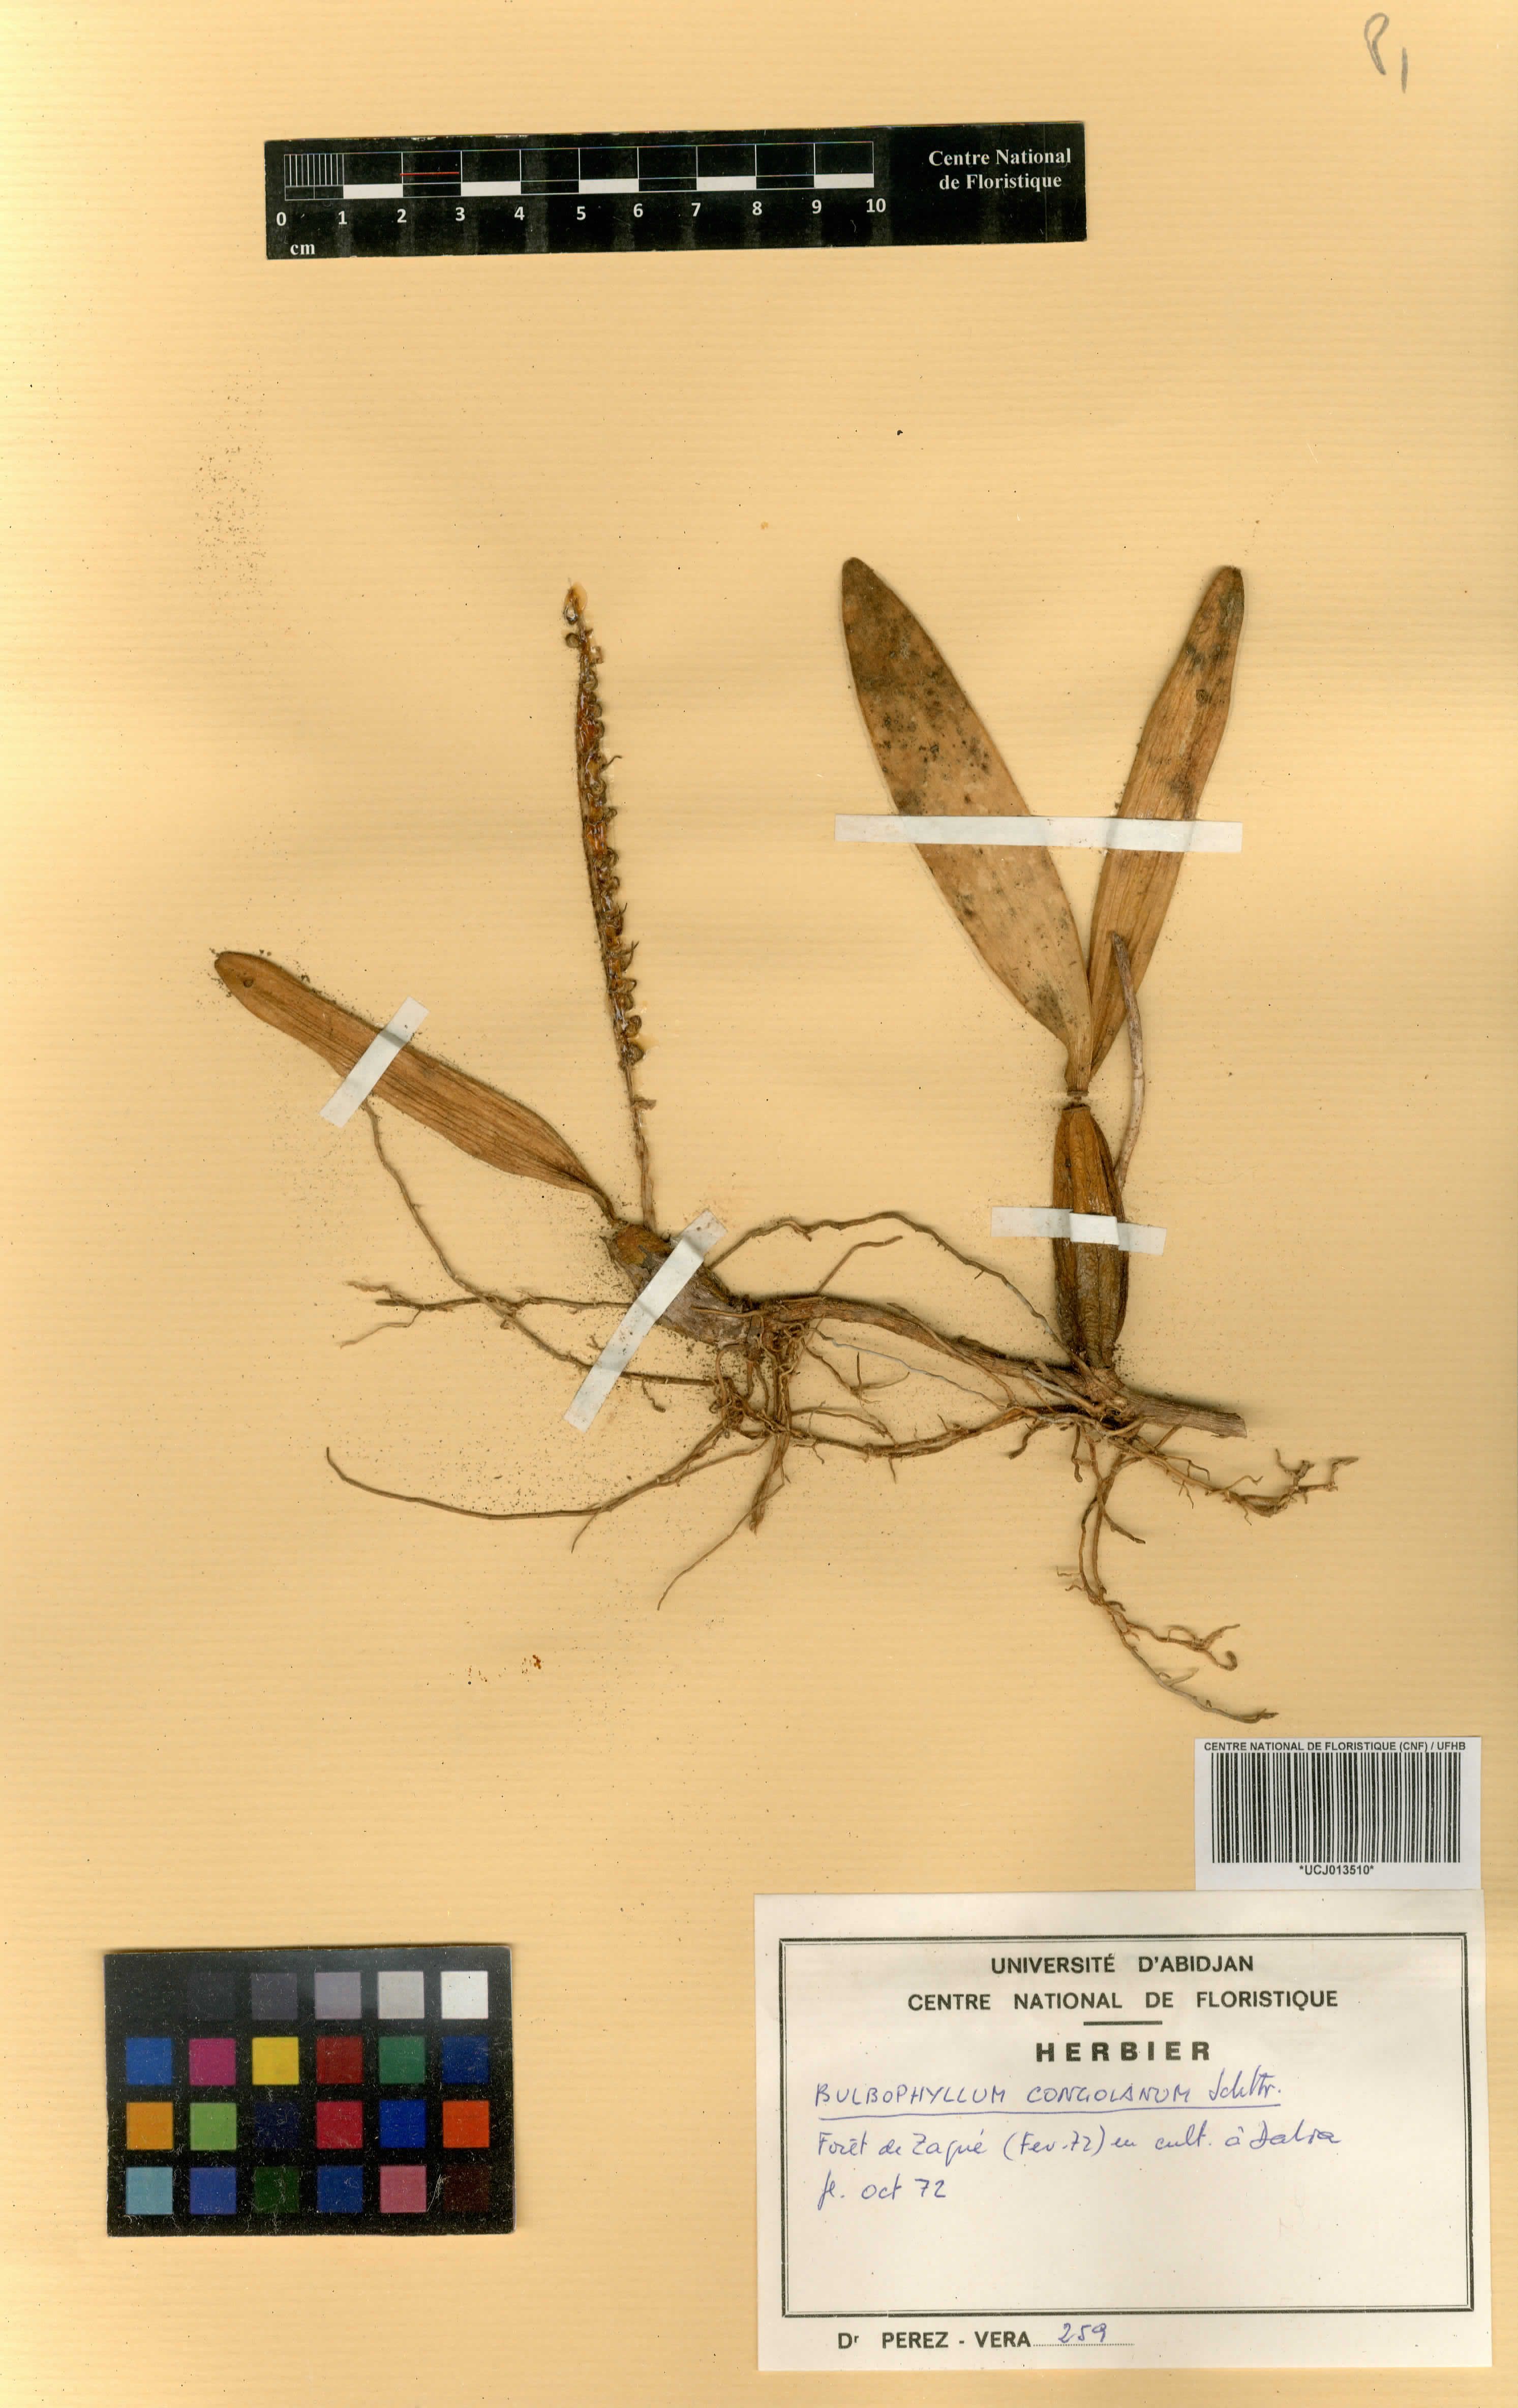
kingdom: Plantae
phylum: Tracheophyta
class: Liliopsida
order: Asparagales
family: Orchidaceae
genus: Bulbophyllum
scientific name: Bulbophyllum scaberulum
